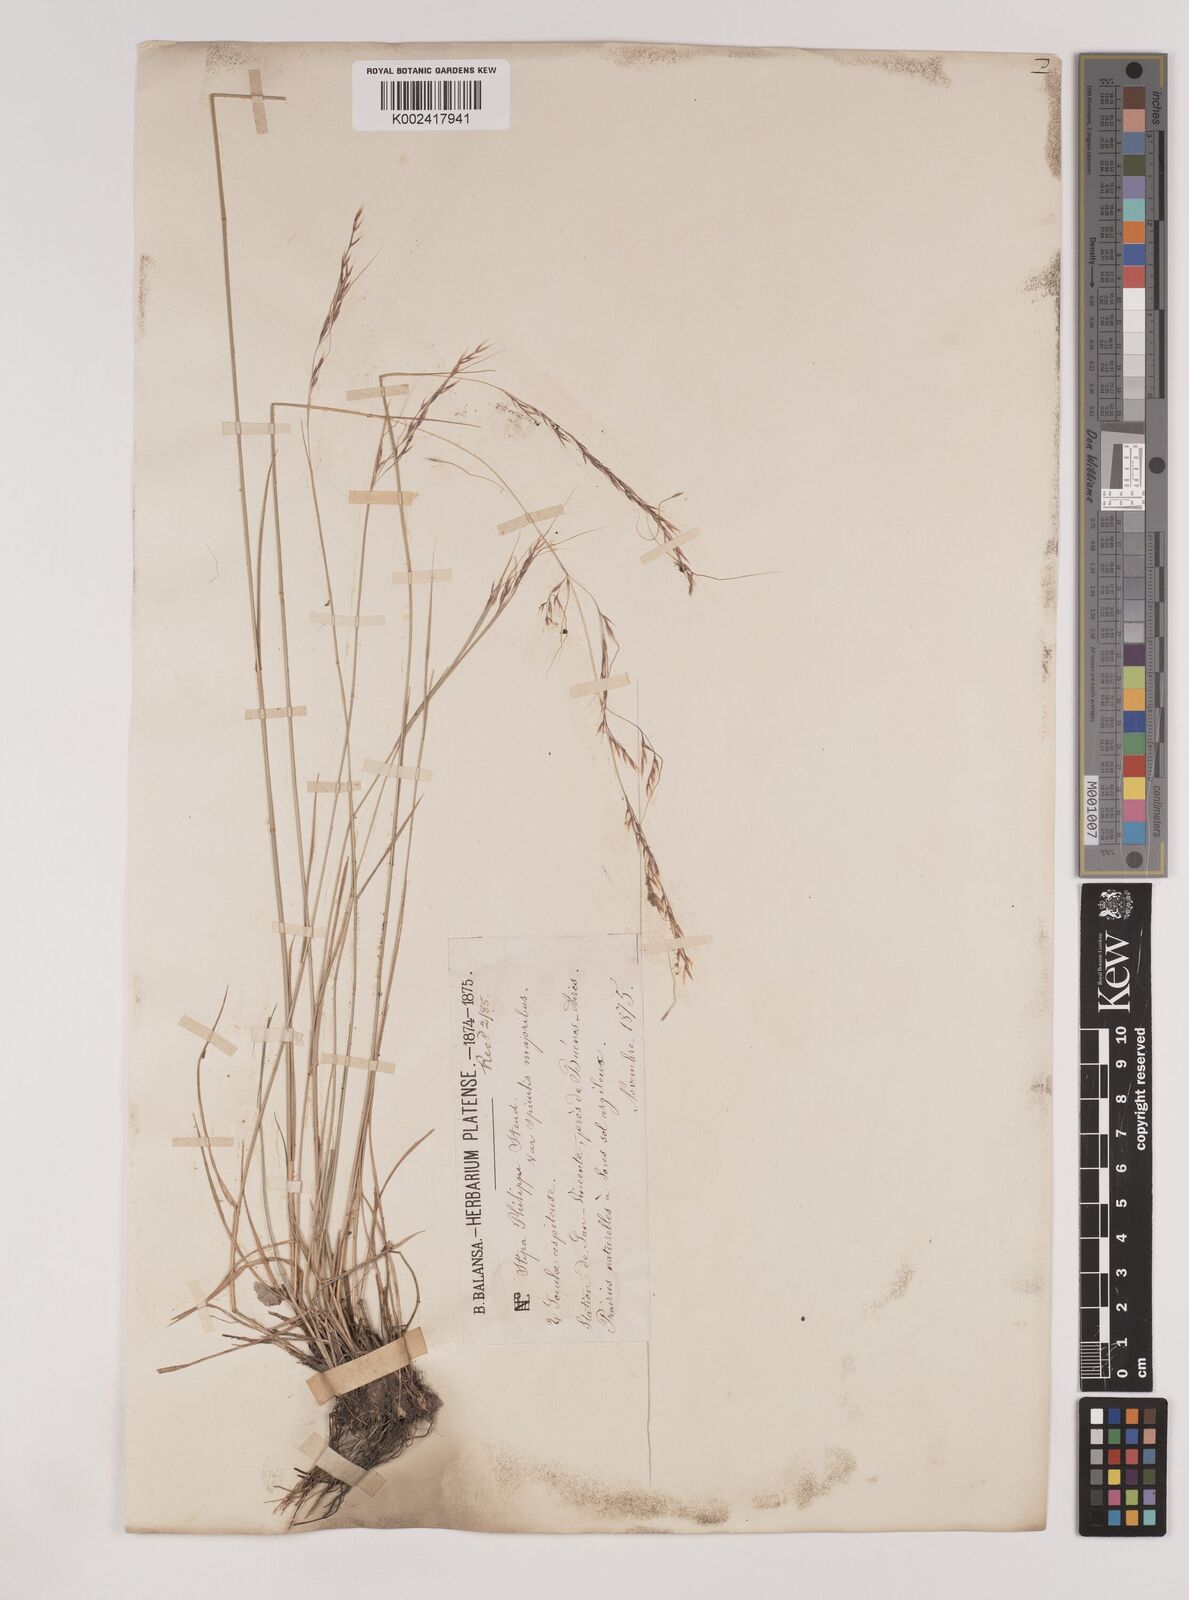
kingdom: Plantae
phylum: Tracheophyta
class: Liliopsida
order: Poales
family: Poaceae
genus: Nassella
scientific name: Nassella philippii
